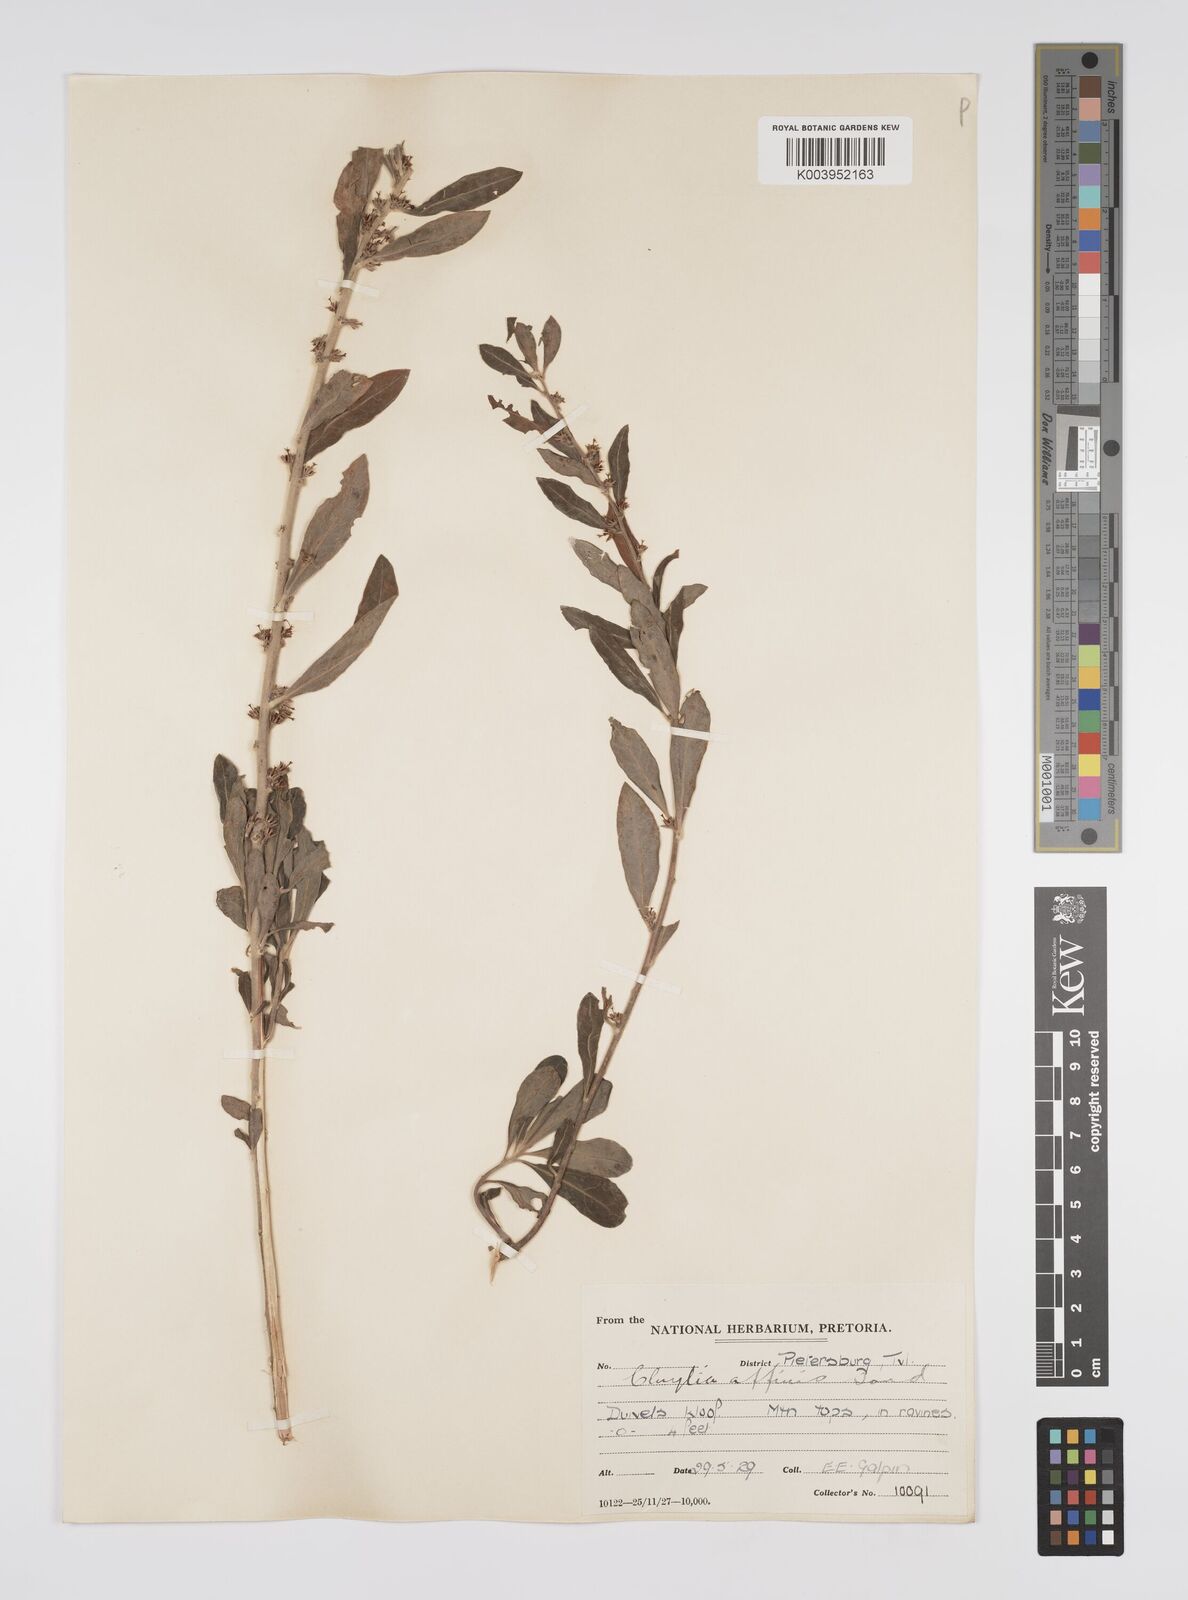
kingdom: Plantae
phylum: Tracheophyta
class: Magnoliopsida
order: Malpighiales
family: Peraceae
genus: Clutia
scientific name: Clutia affinis
